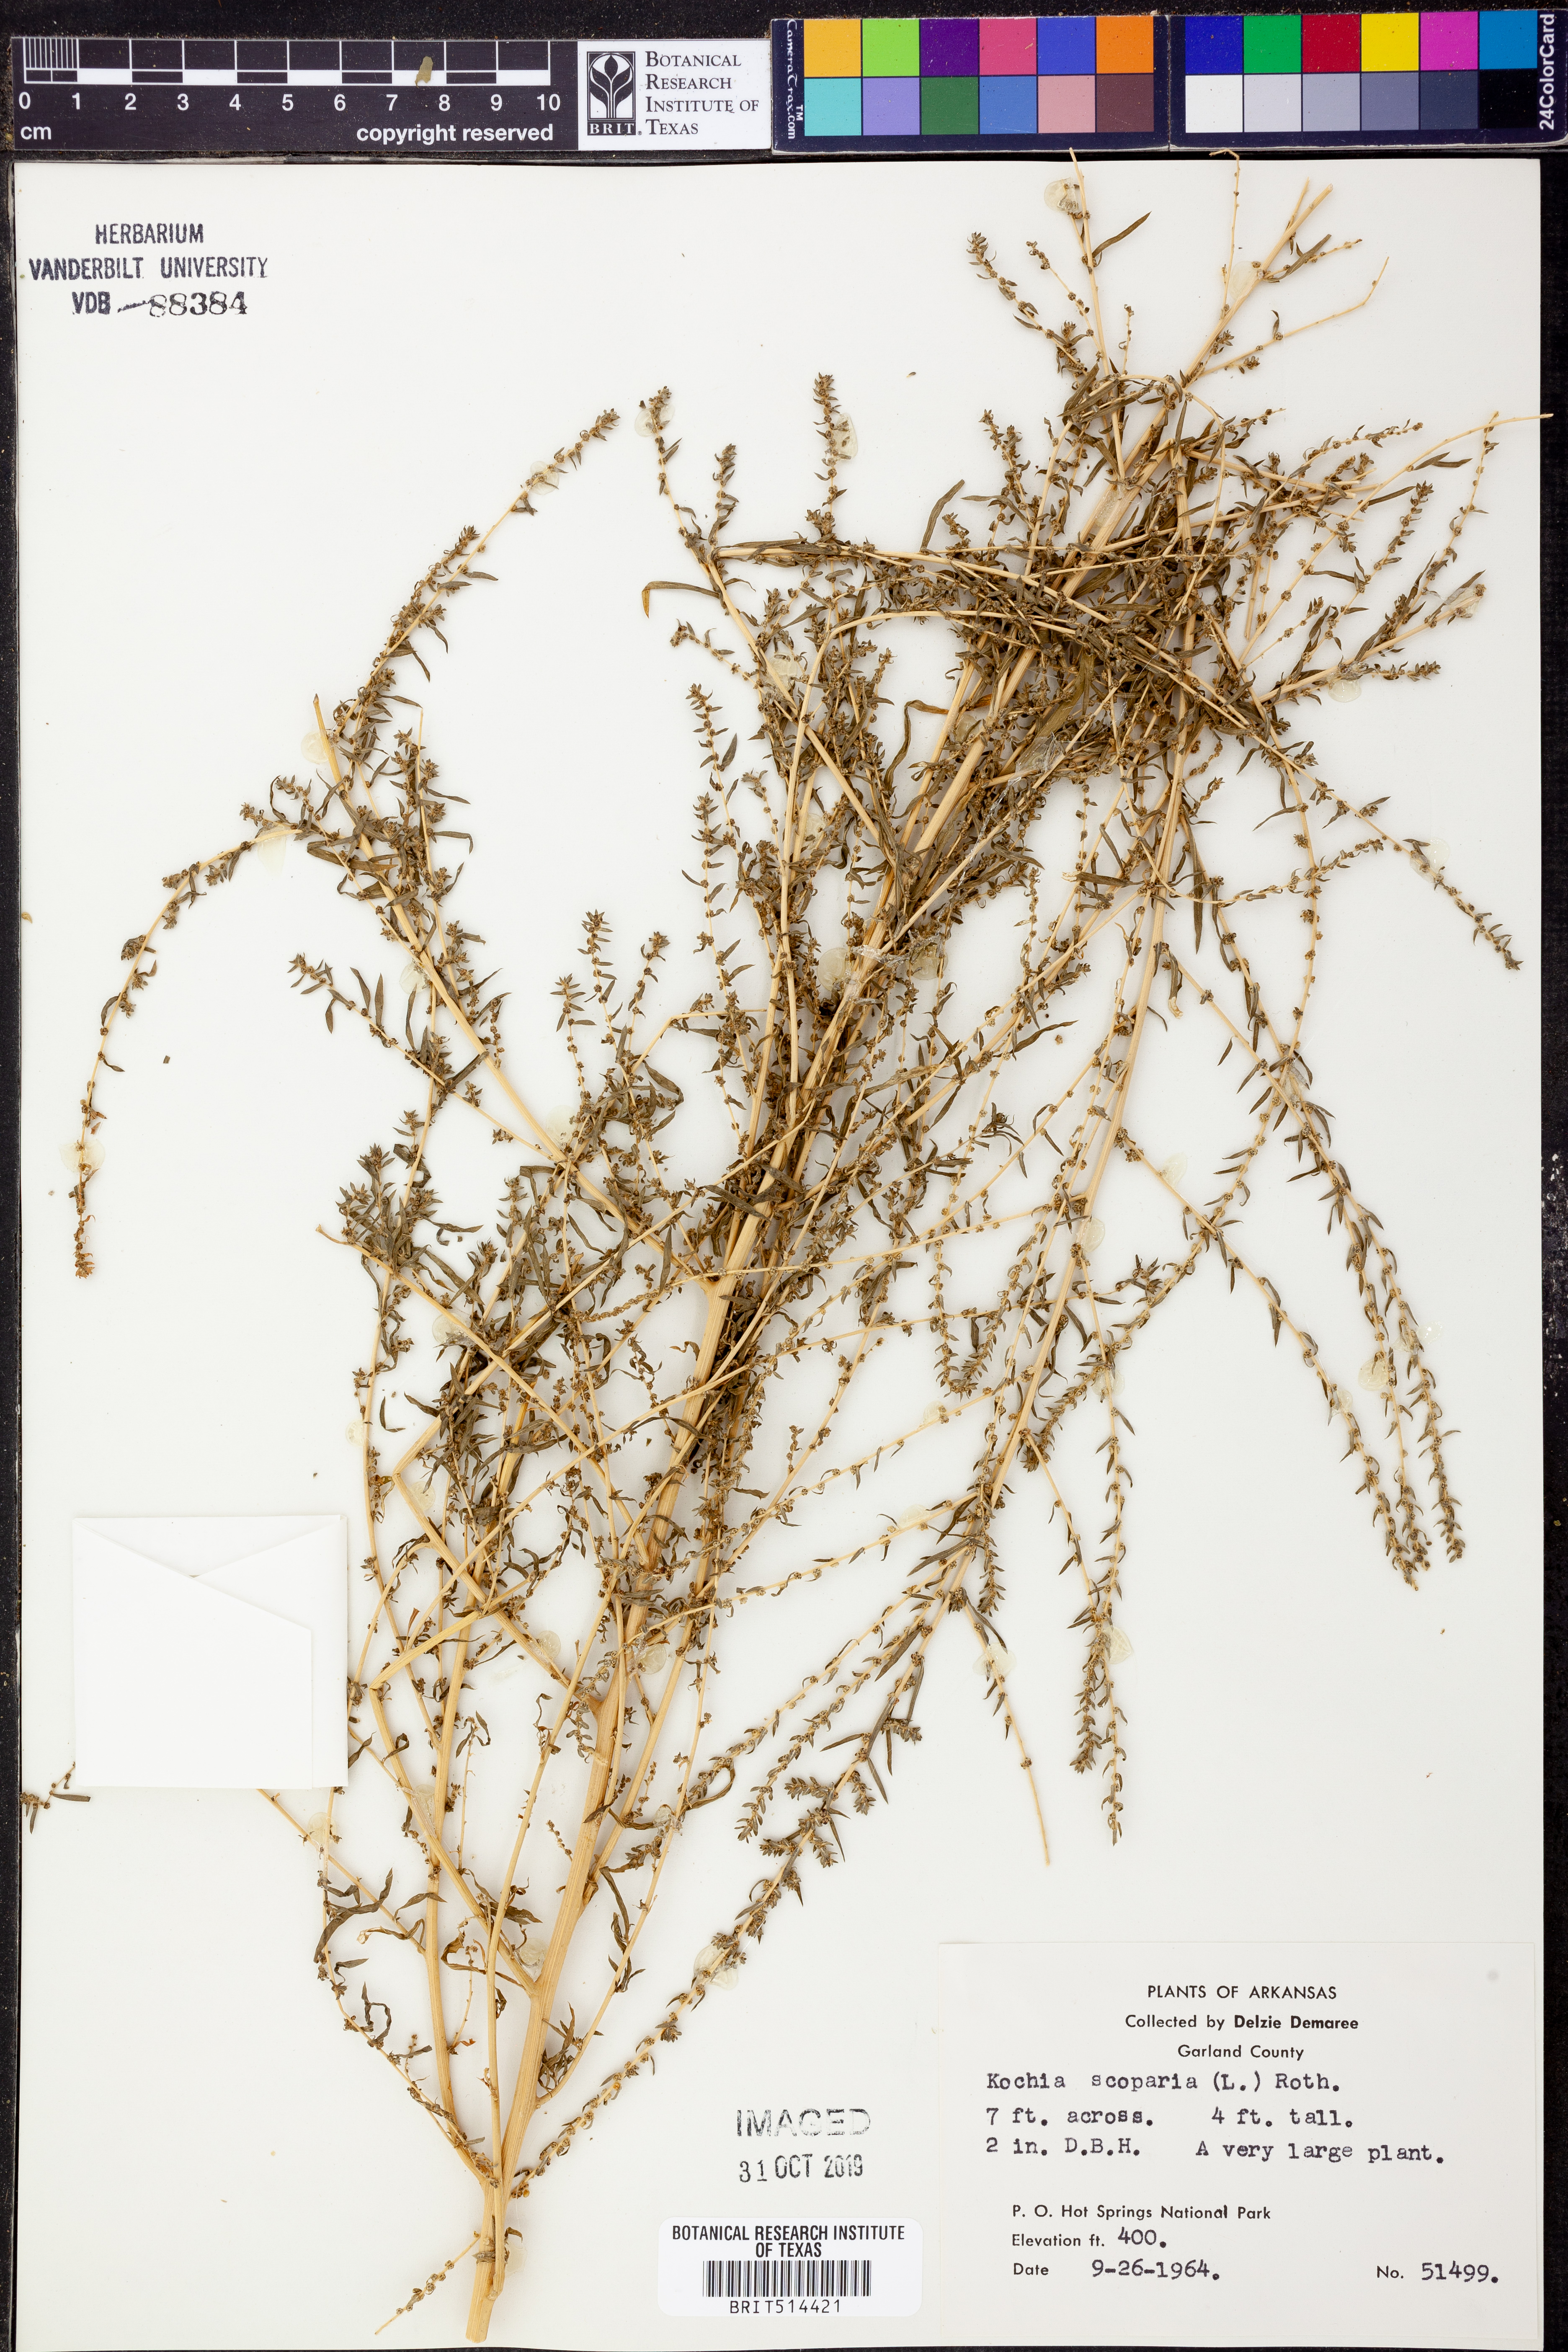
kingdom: Plantae
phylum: Tracheophyta
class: Magnoliopsida
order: Caryophyllales
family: Amaranthaceae
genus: Bassia
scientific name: Bassia scoparia
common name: Belvedere
